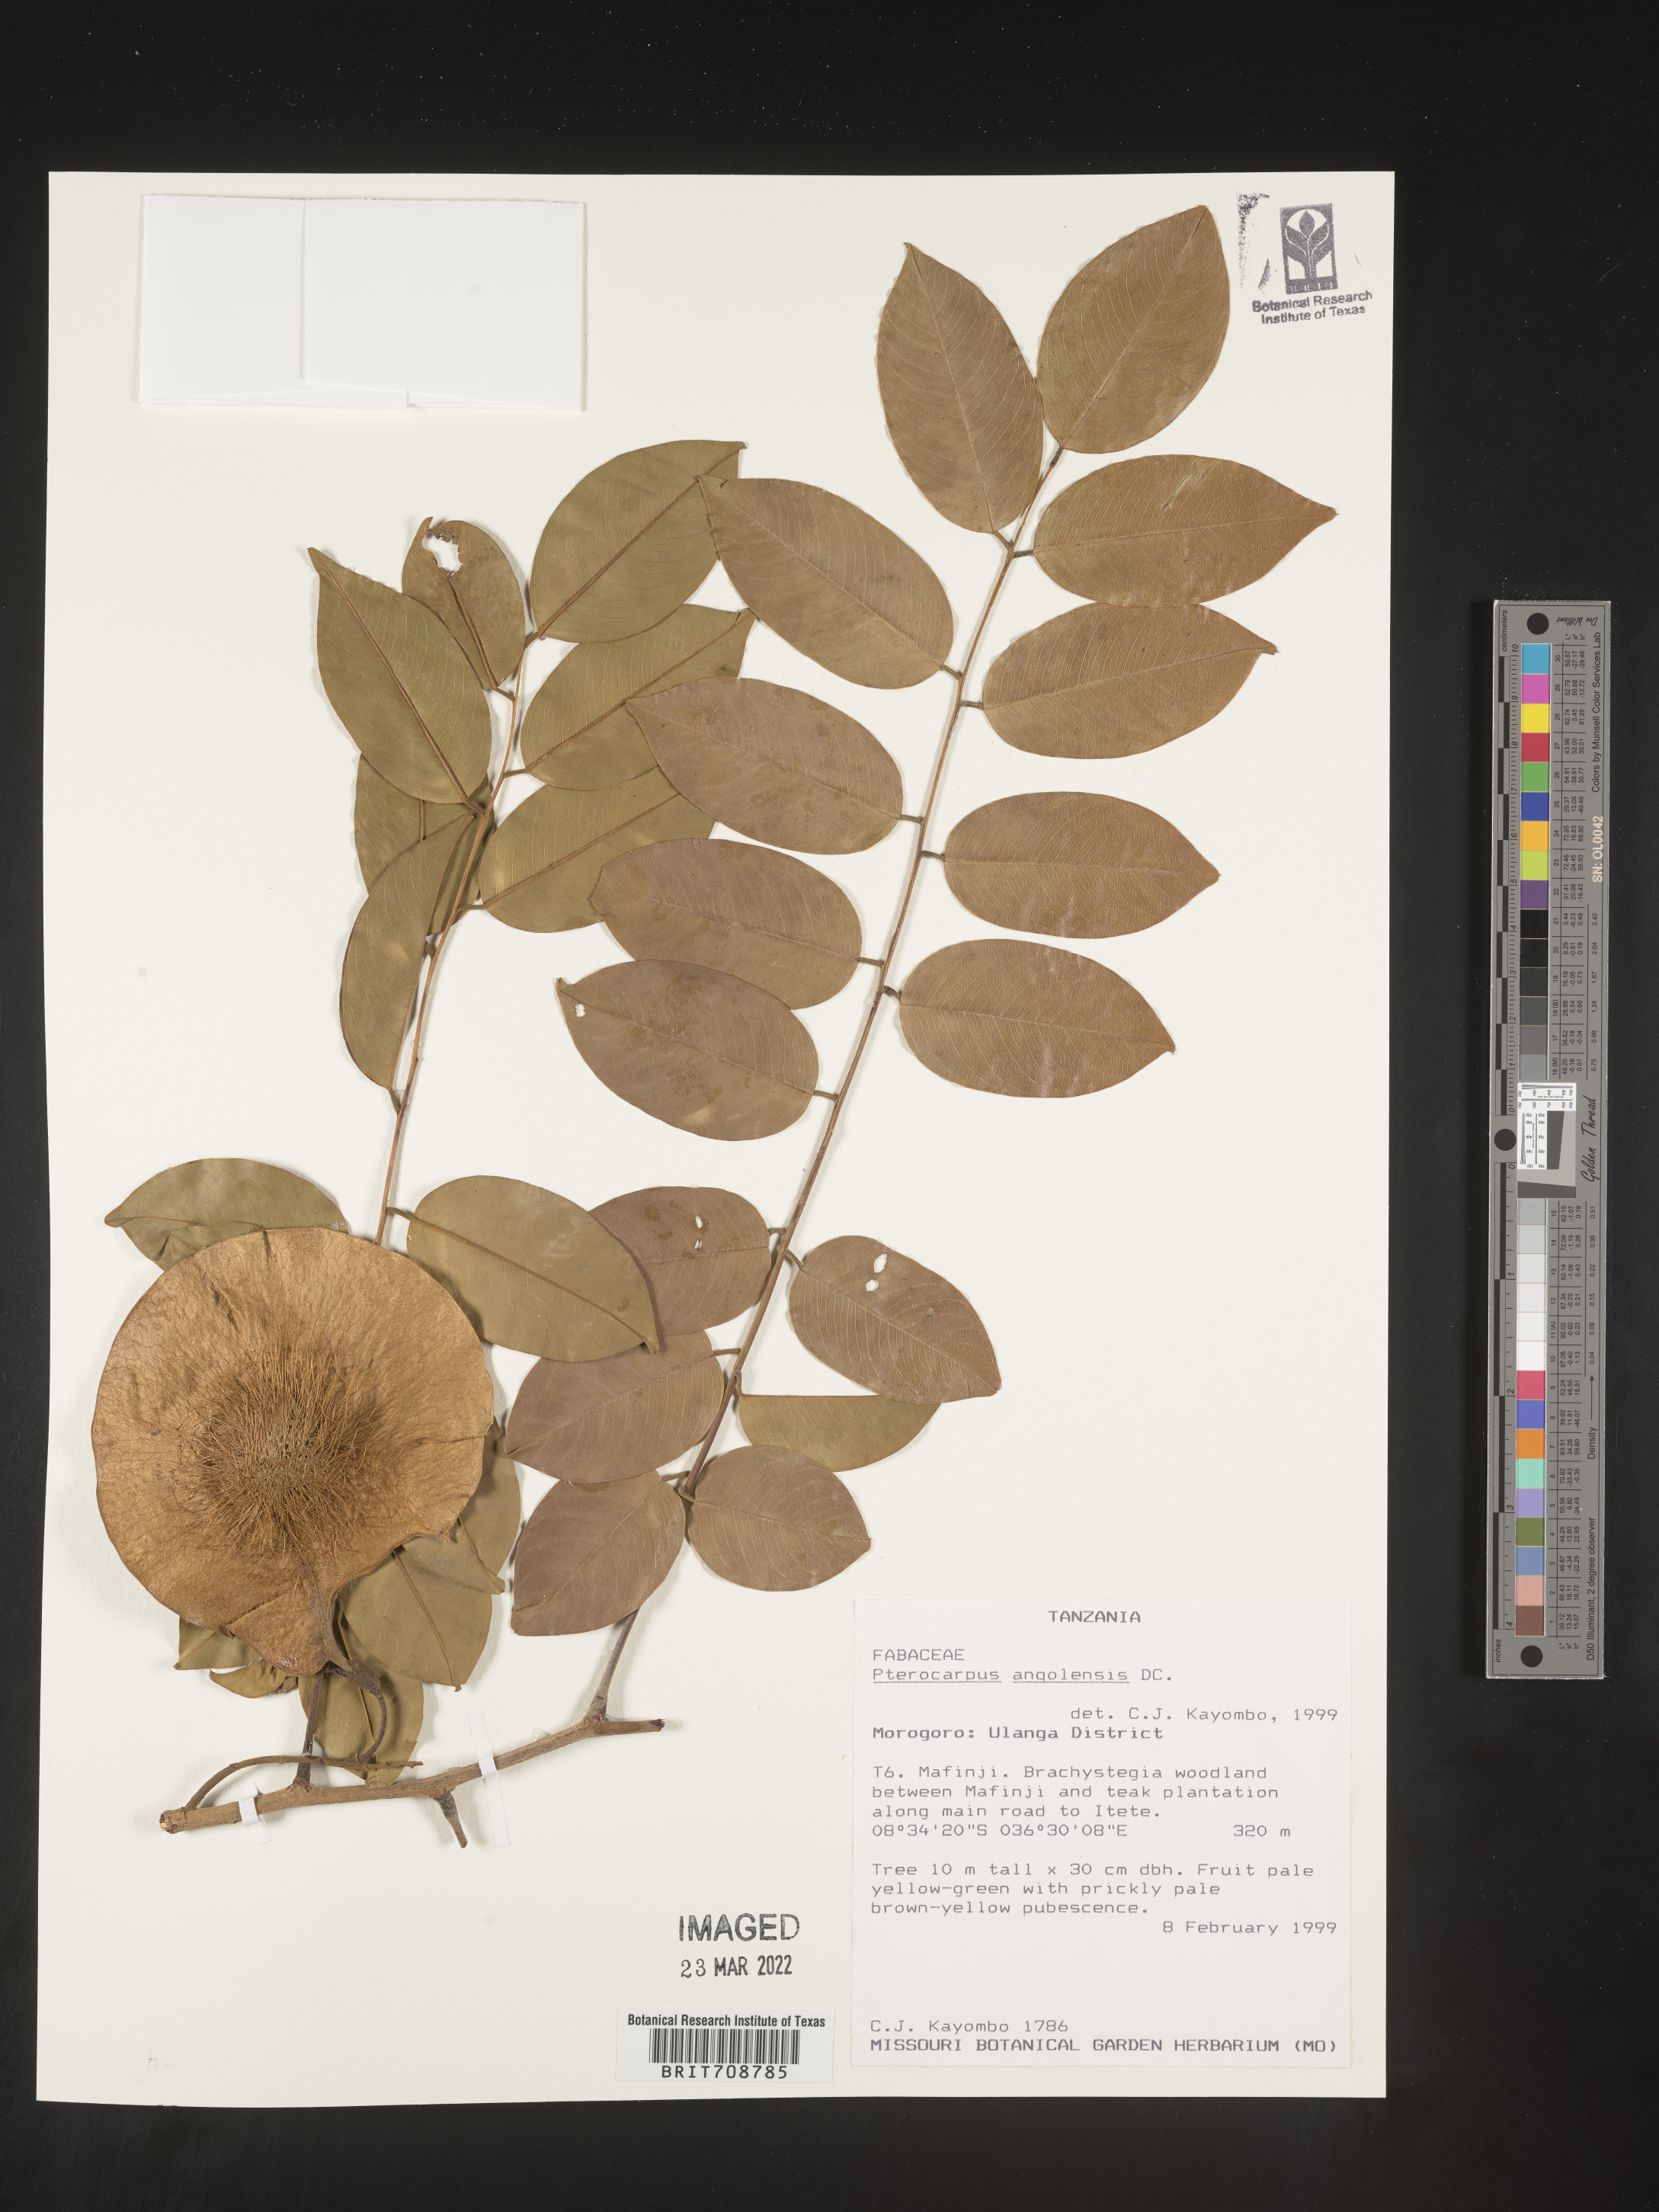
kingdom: Plantae
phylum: Tracheophyta
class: Magnoliopsida
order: Fabales
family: Fabaceae
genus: Pterocarpus
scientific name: Pterocarpus
